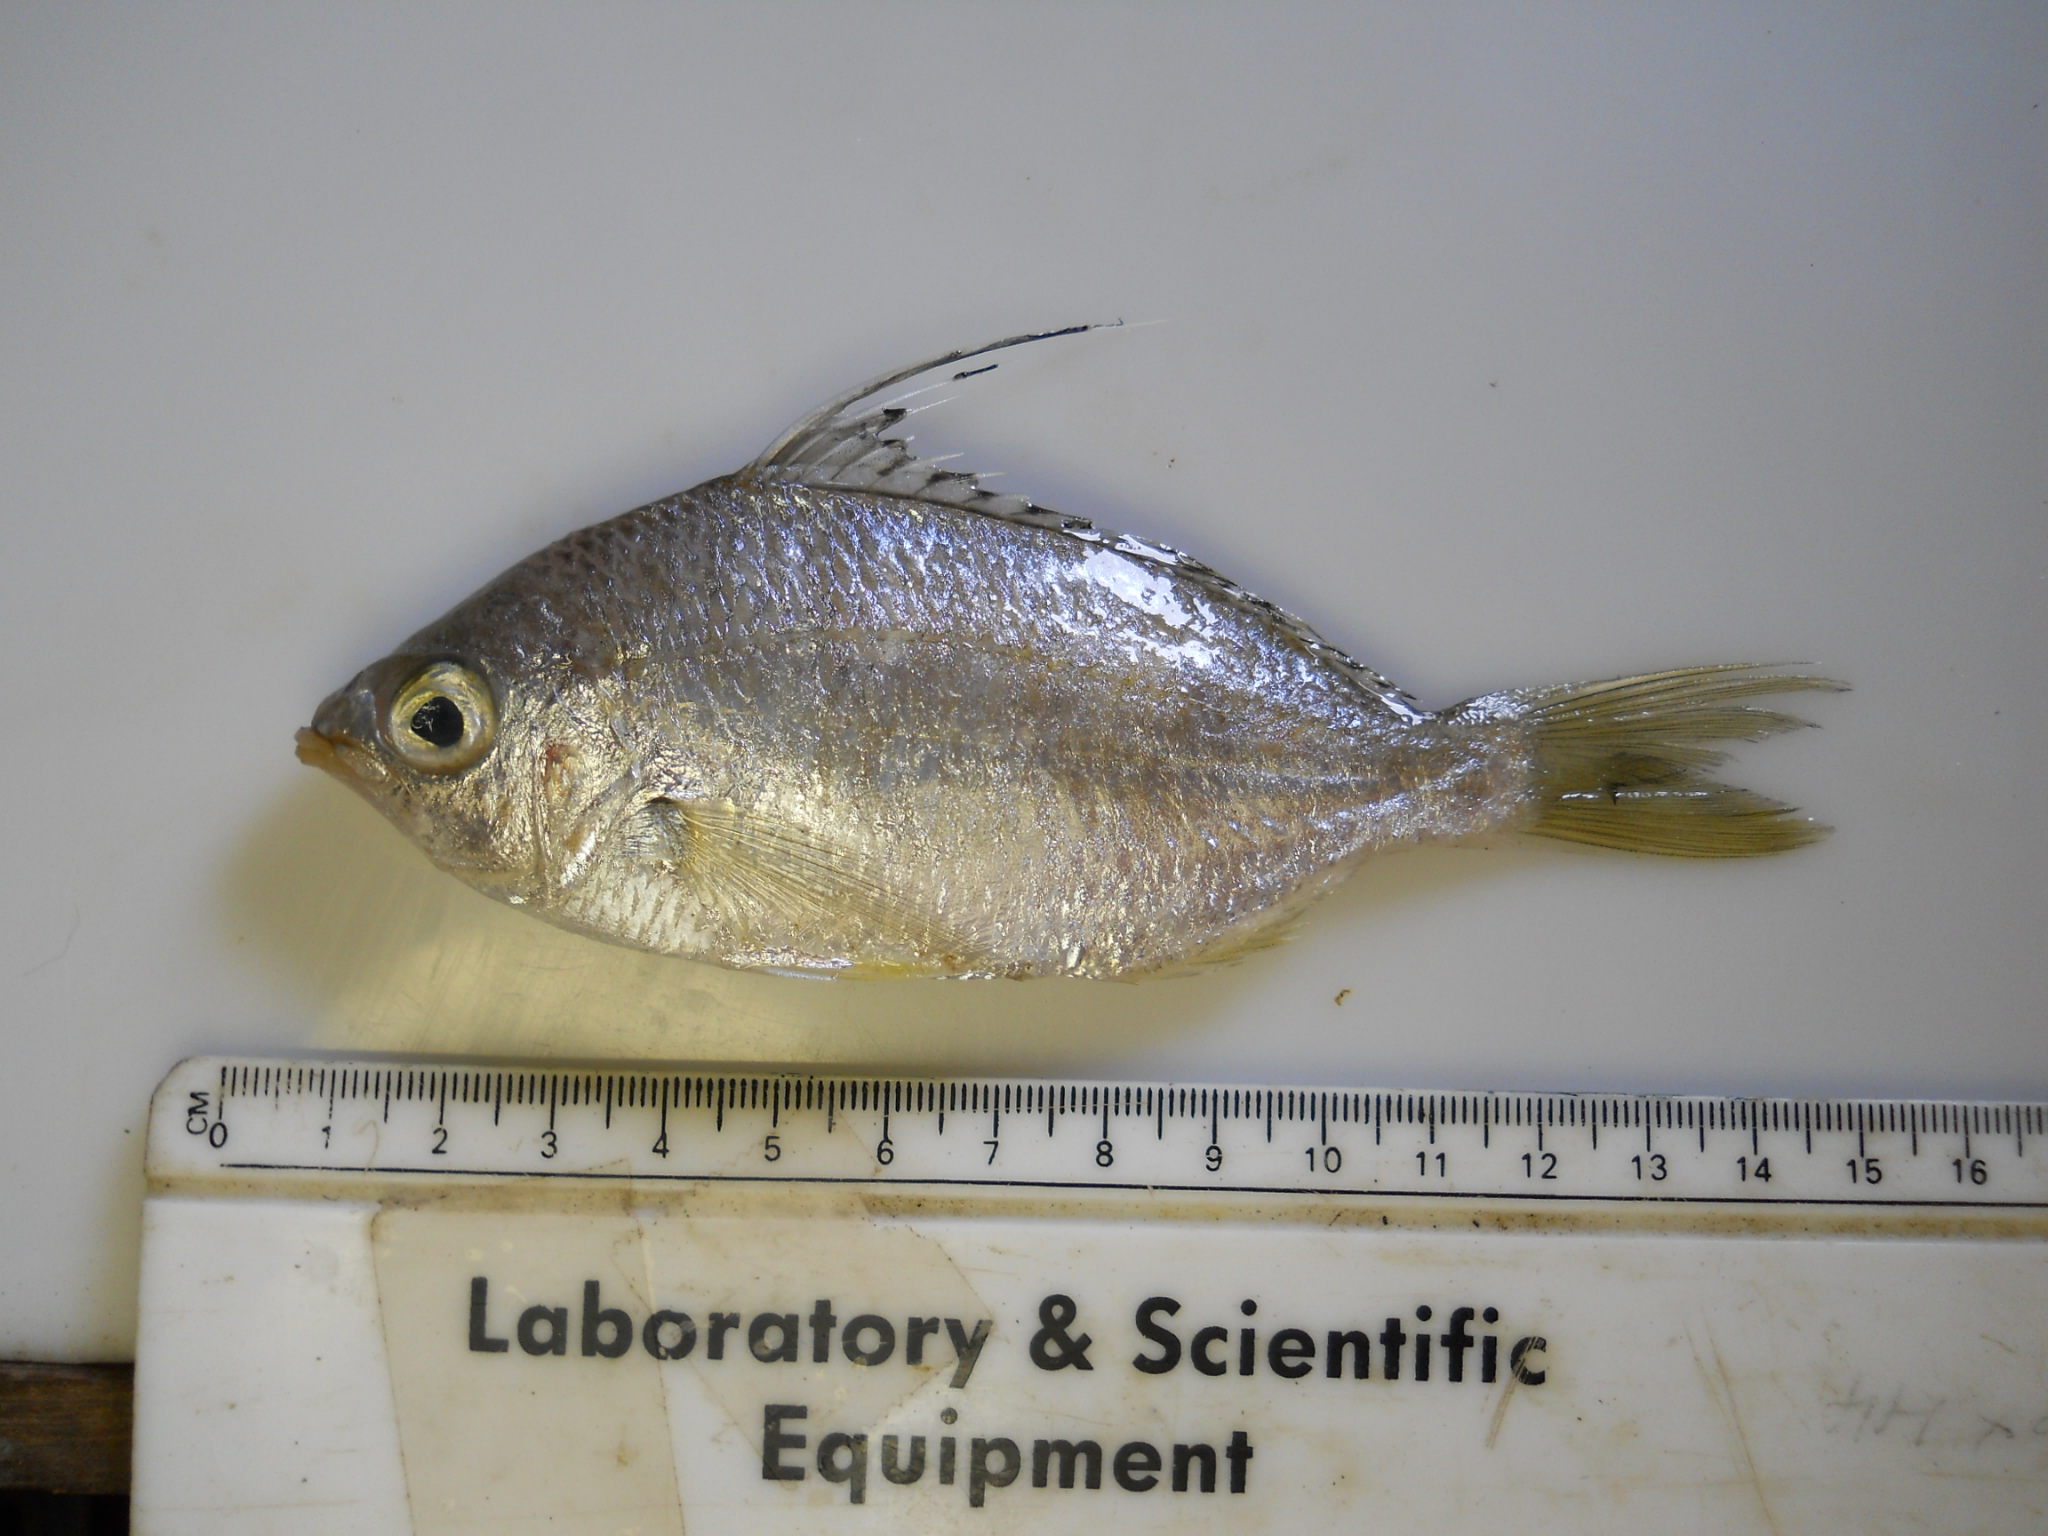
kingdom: Animalia
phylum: Chordata
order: Perciformes
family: Gerreidae
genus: Gerres
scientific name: Gerres macracanthus
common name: Long-rayed mojarra
